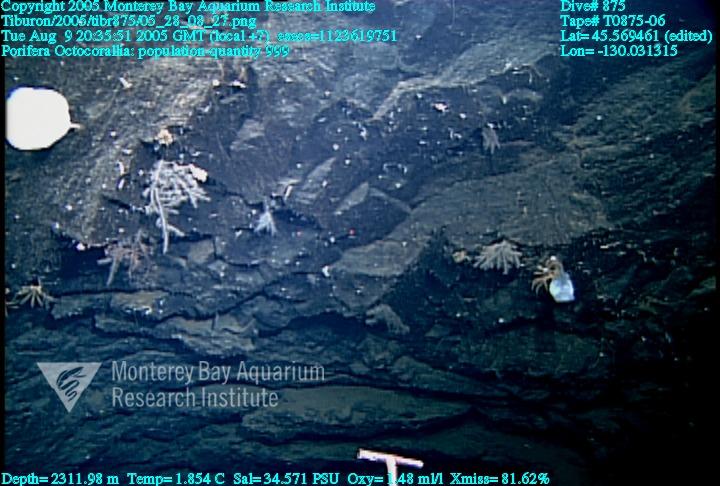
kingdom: Animalia
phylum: Porifera
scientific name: Porifera
